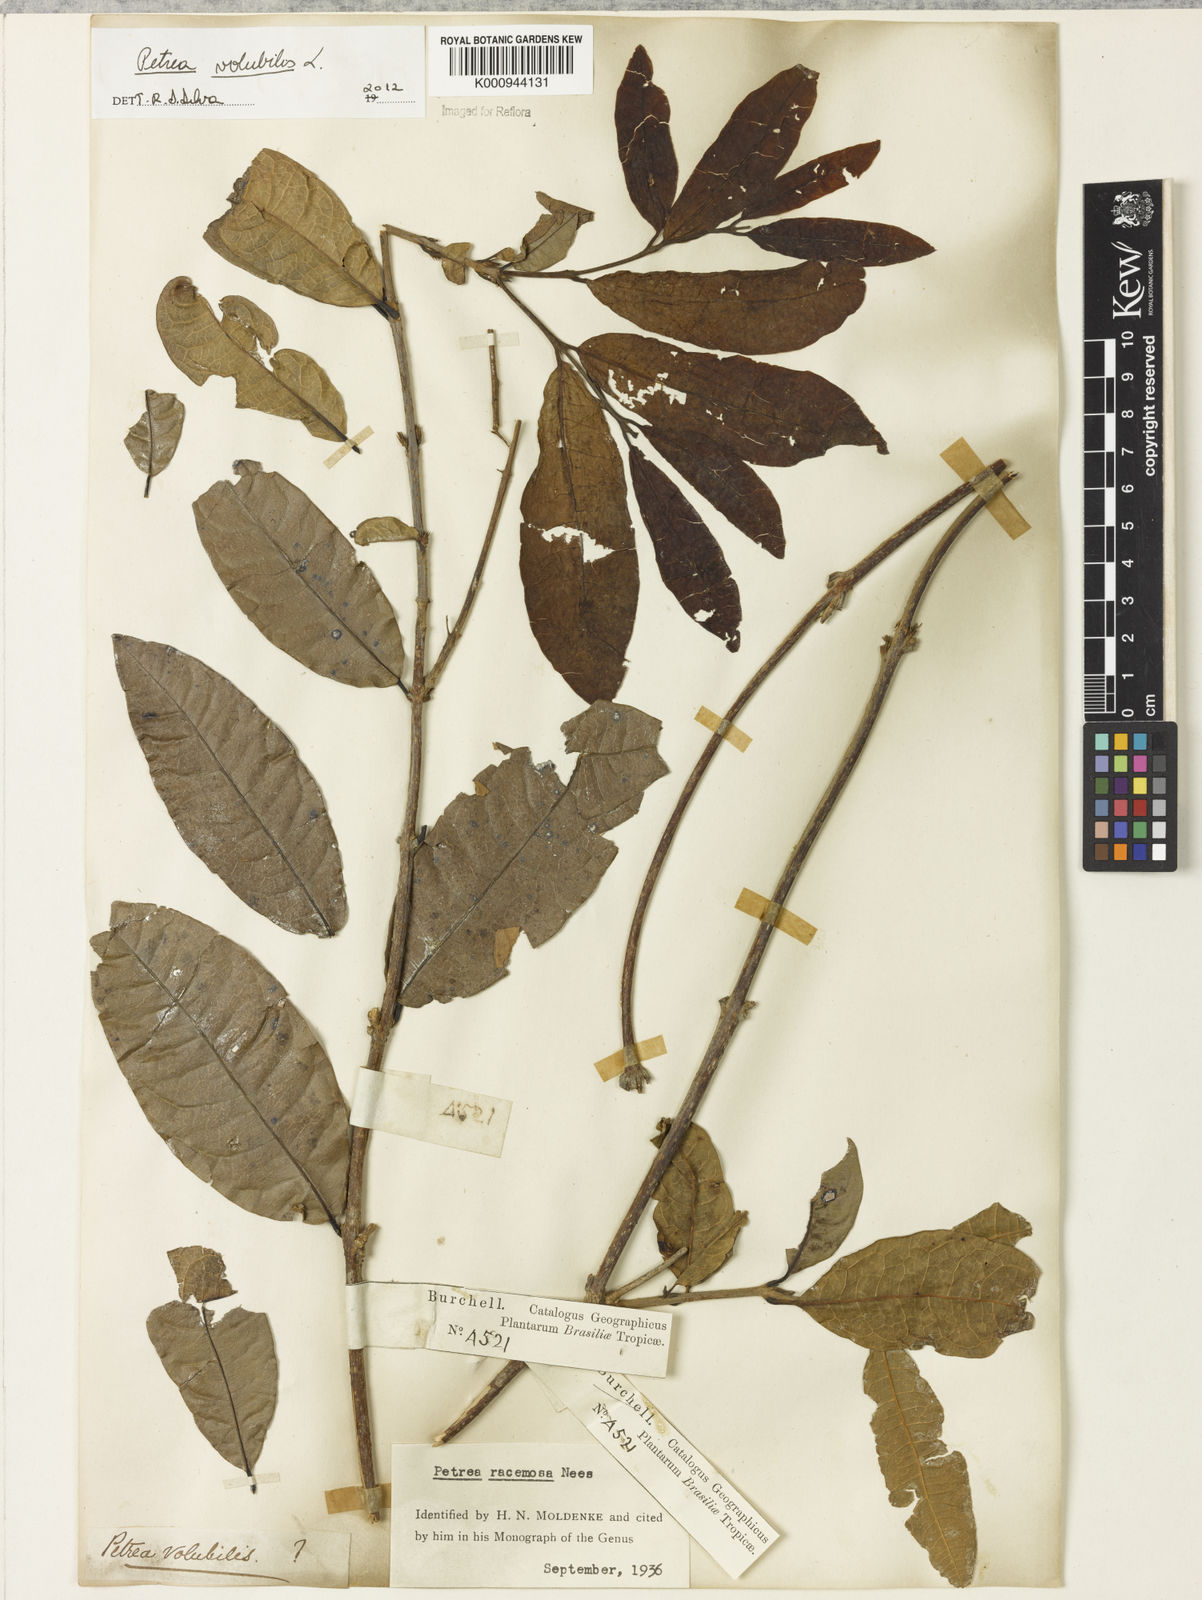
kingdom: Plantae
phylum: Tracheophyta
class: Magnoliopsida
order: Lamiales
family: Verbenaceae
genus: Petrea
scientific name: Petrea volubilis
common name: Queen's-wreath
